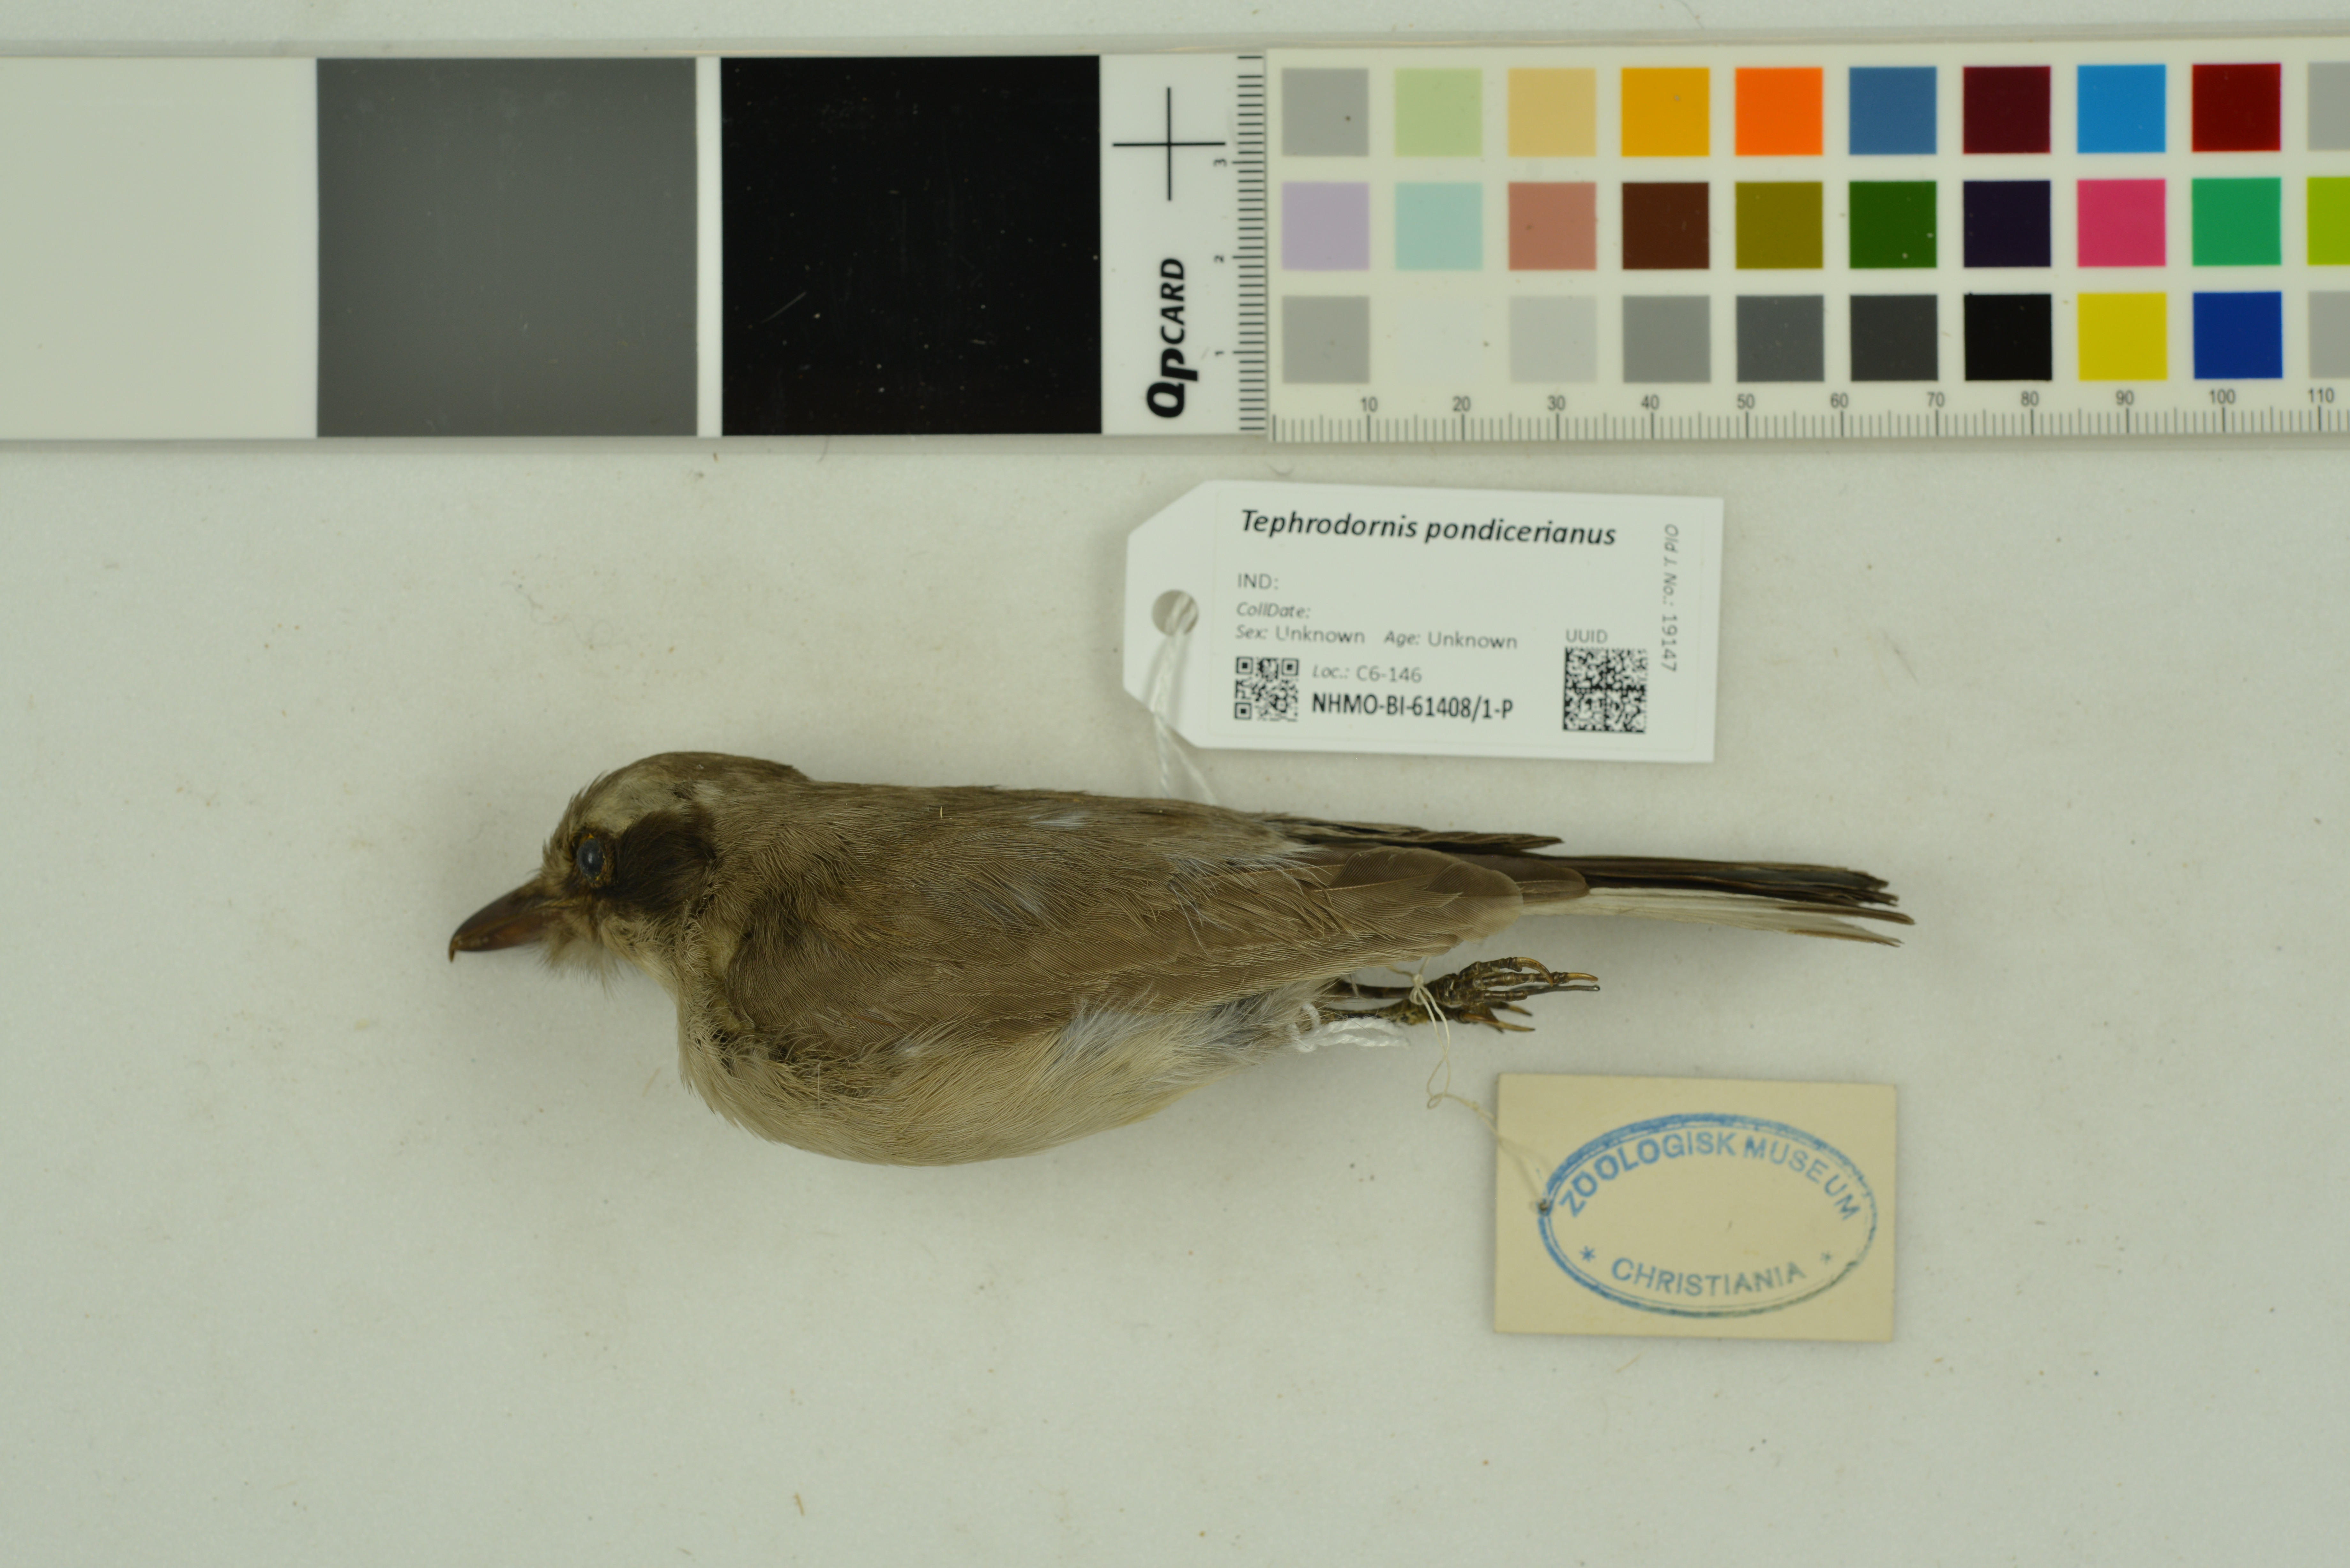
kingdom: Animalia
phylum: Chordata
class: Aves
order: Passeriformes
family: Tephrodornithidae
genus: Tephrodornis
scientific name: Tephrodornis pondicerianus
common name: Common woodshrike
